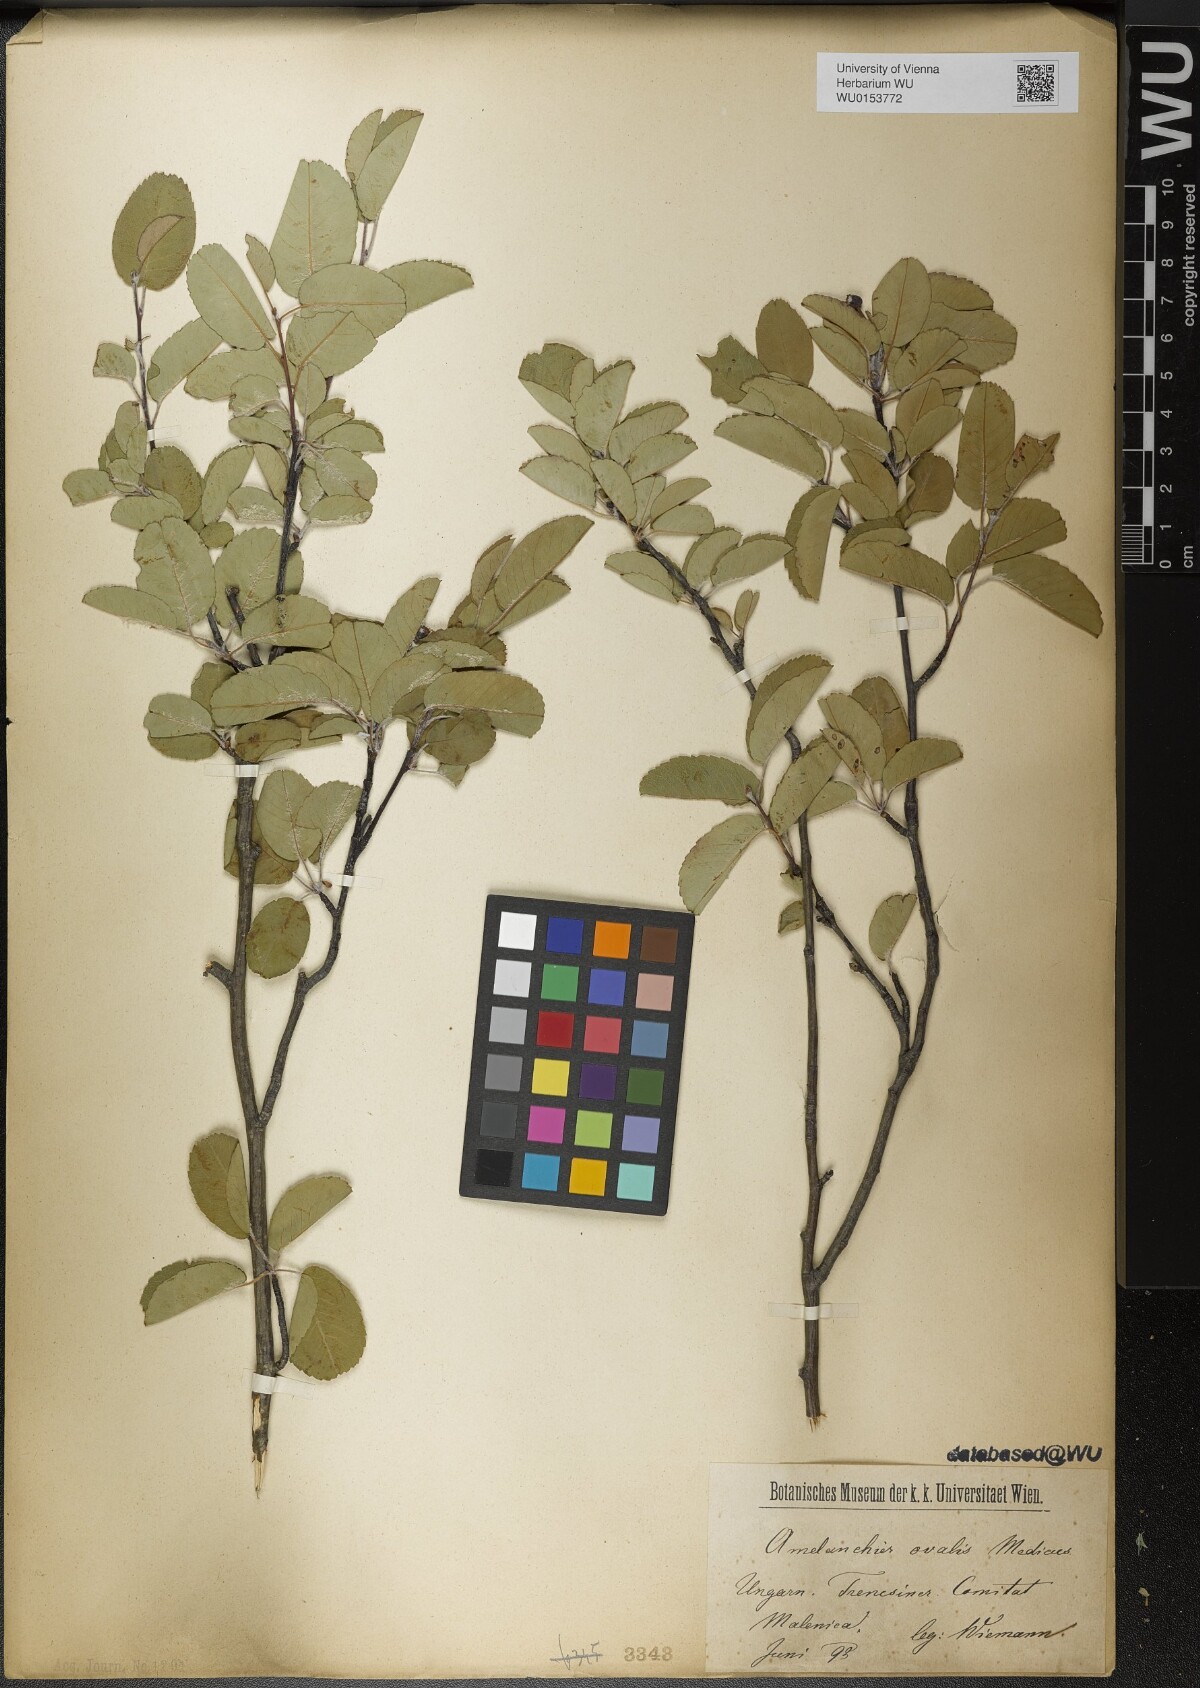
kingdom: Plantae
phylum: Tracheophyta
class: Magnoliopsida
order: Rosales
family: Rosaceae
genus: Amelanchier
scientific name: Amelanchier ovalis
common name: Serviceberry
